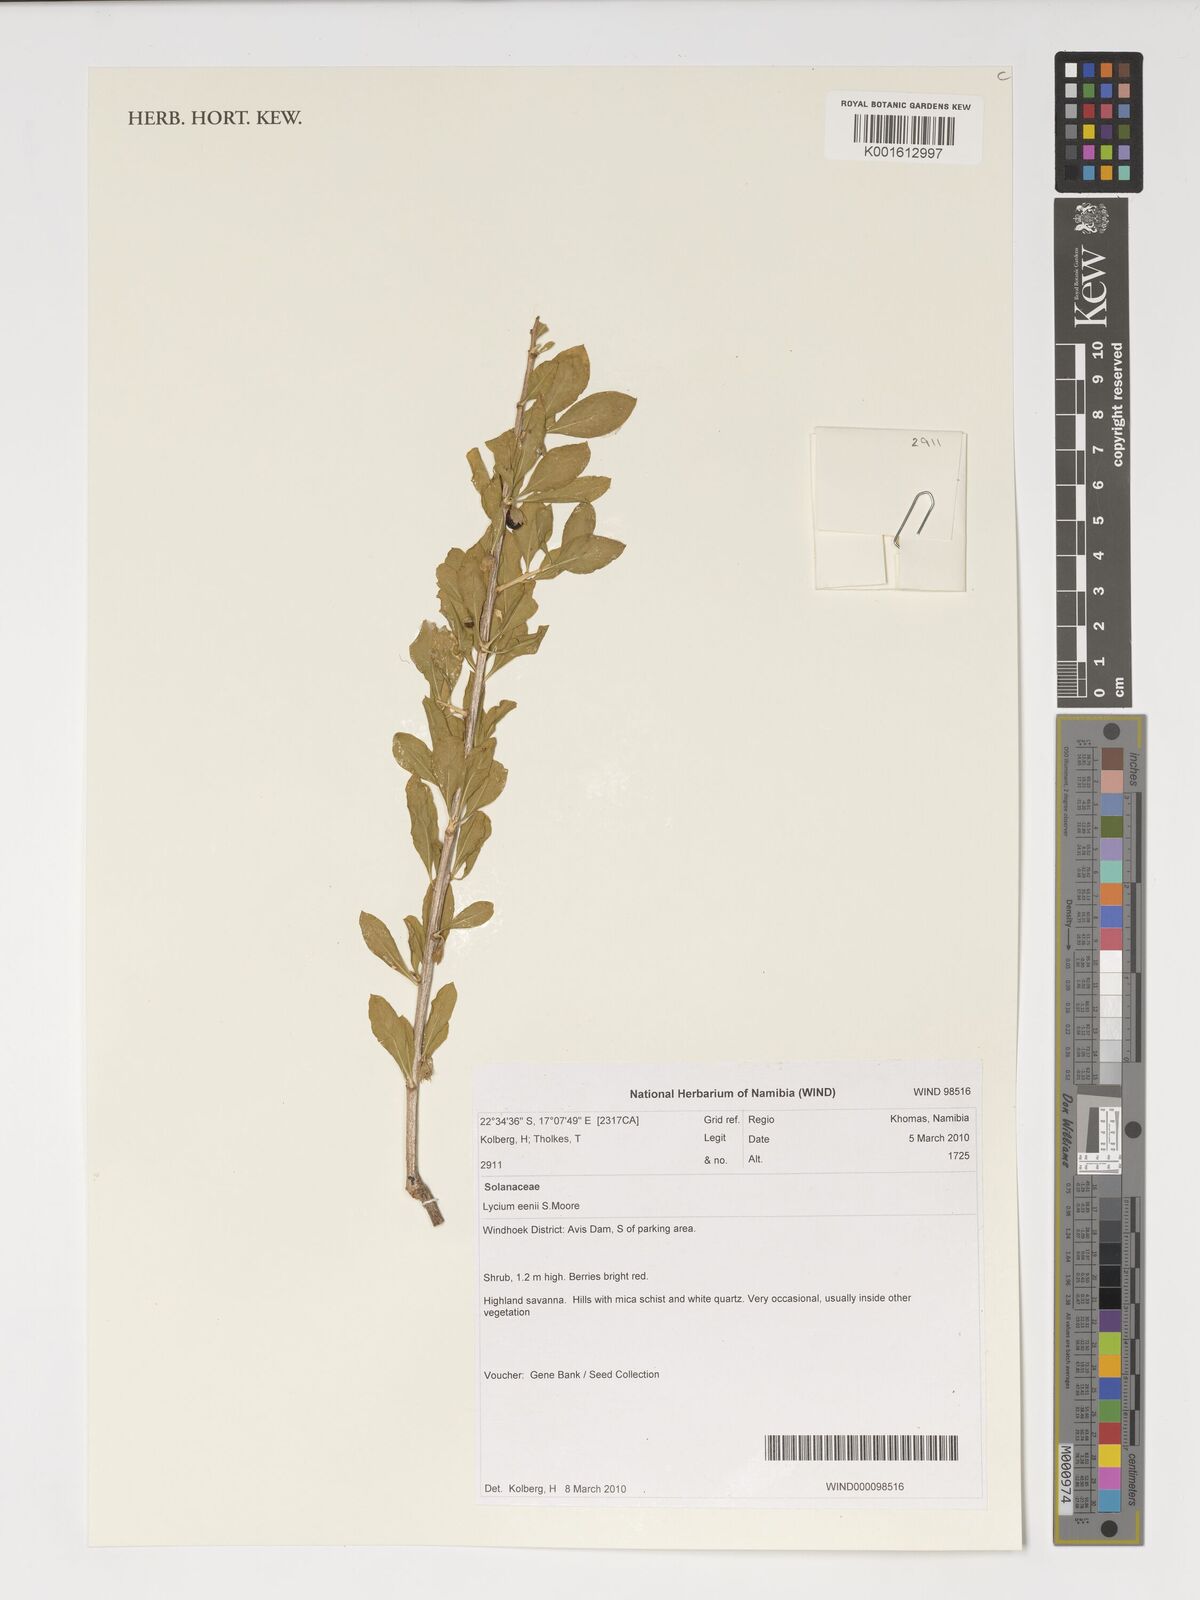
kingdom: Plantae
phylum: Tracheophyta
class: Magnoliopsida
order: Solanales
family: Solanaceae
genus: Lycium
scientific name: Lycium eenii
